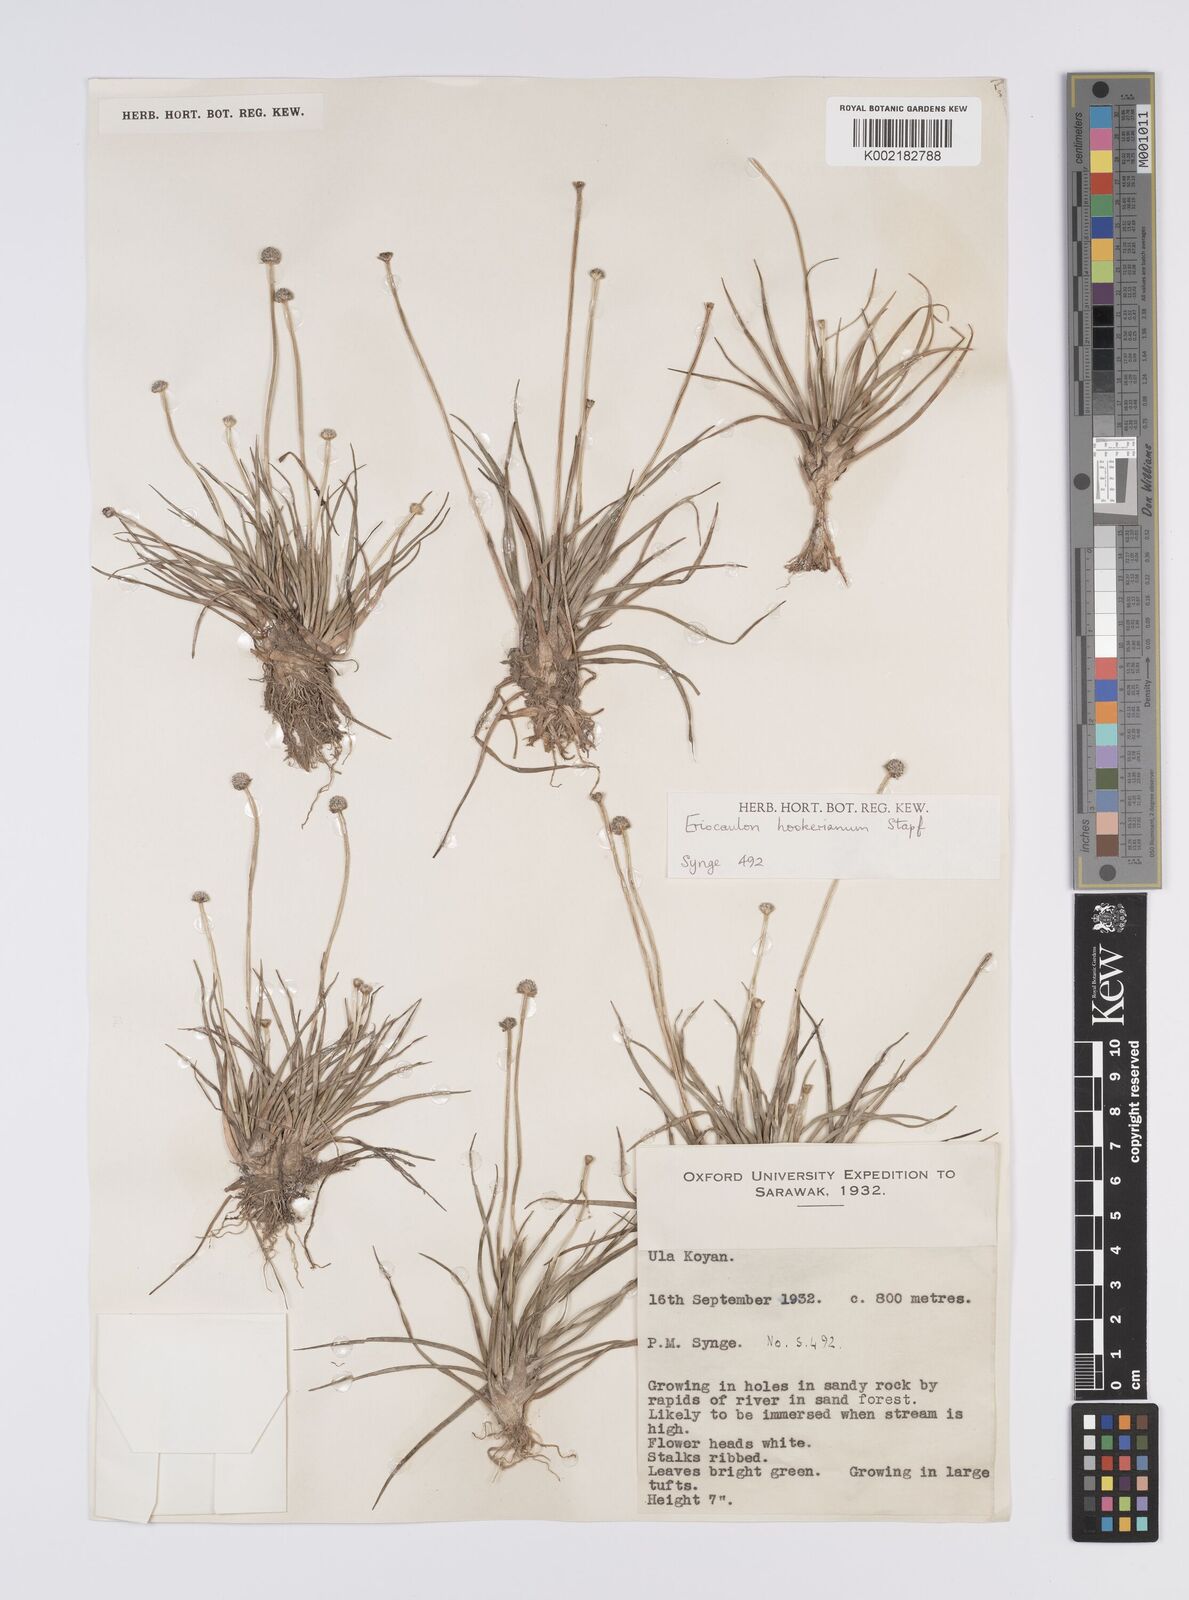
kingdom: Plantae
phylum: Tracheophyta
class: Liliopsida
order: Poales
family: Eriocaulaceae
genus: Eriocaulon
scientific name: Eriocaulon hookerianum
